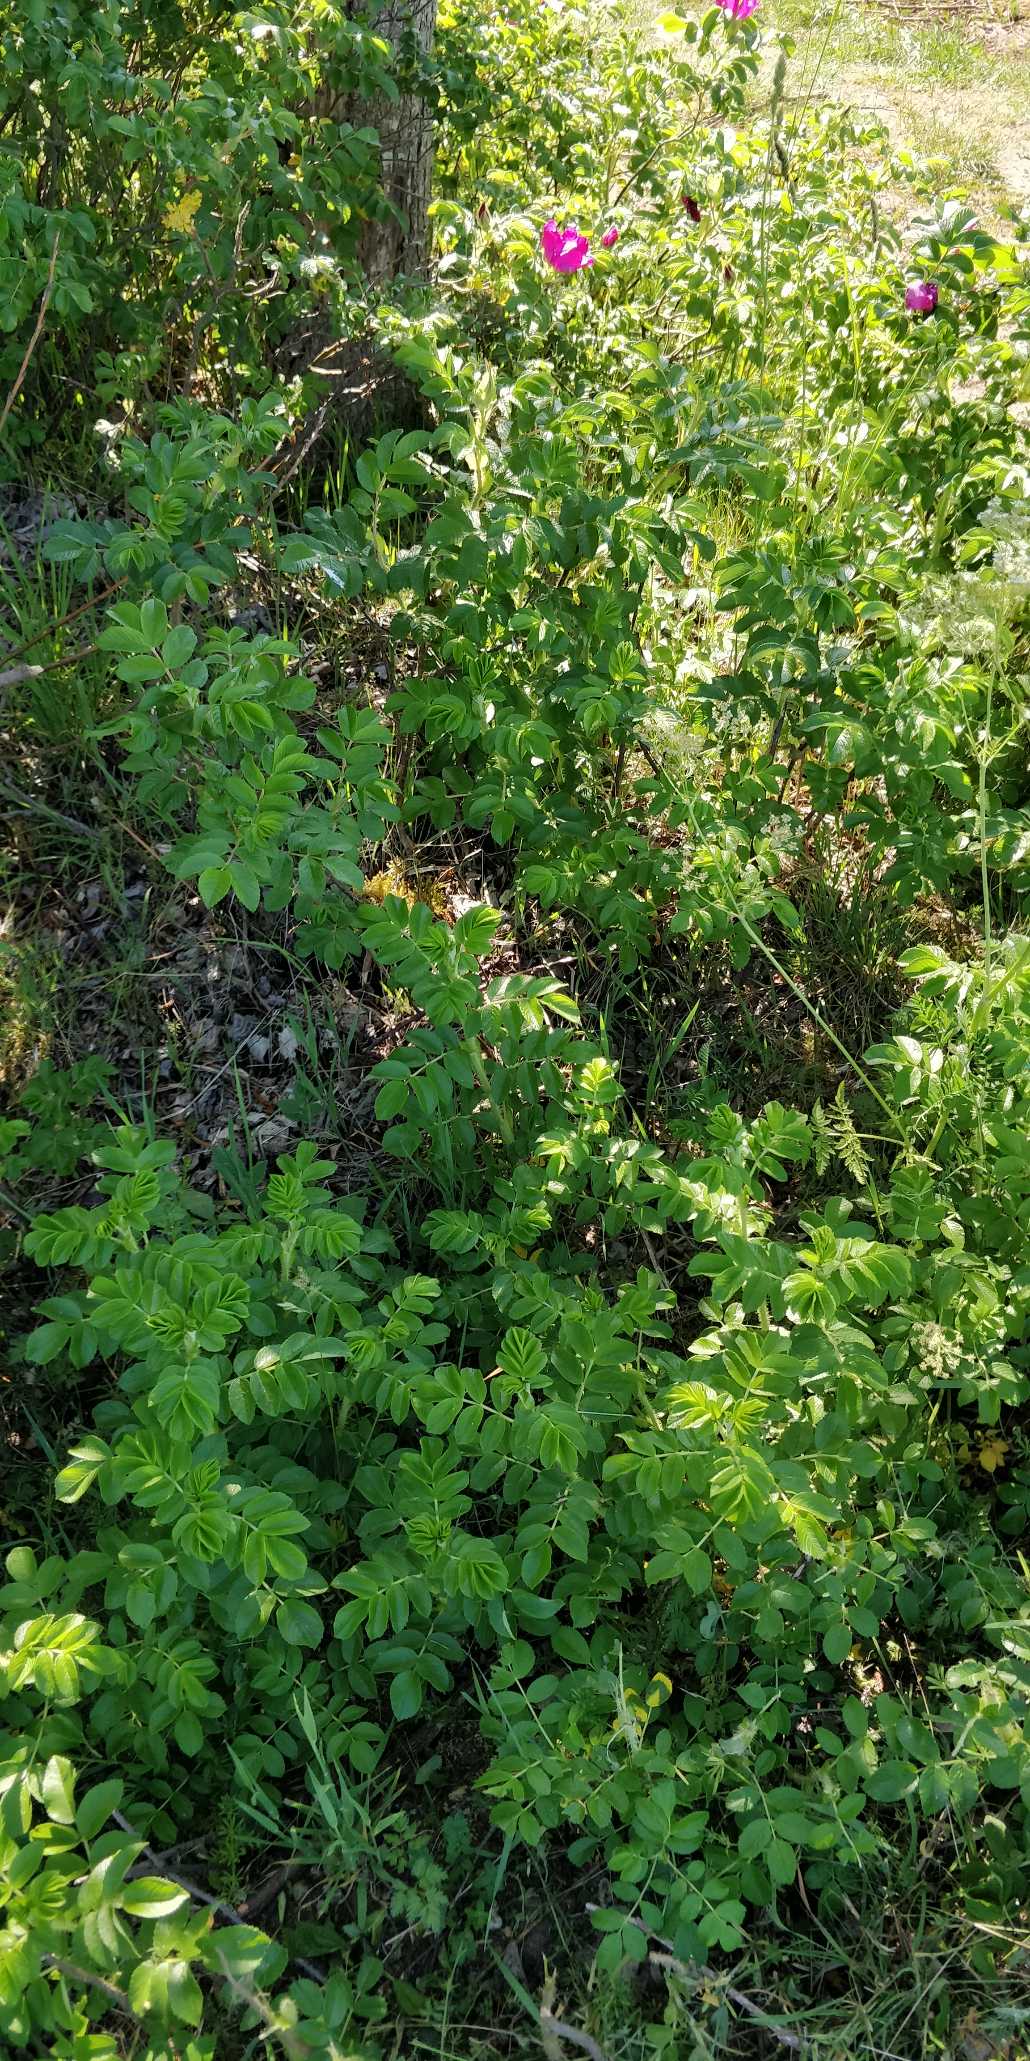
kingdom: Plantae
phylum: Tracheophyta
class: Magnoliopsida
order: Rosales
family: Rosaceae
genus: Rosa
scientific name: Rosa rugosa
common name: Rynket rose
